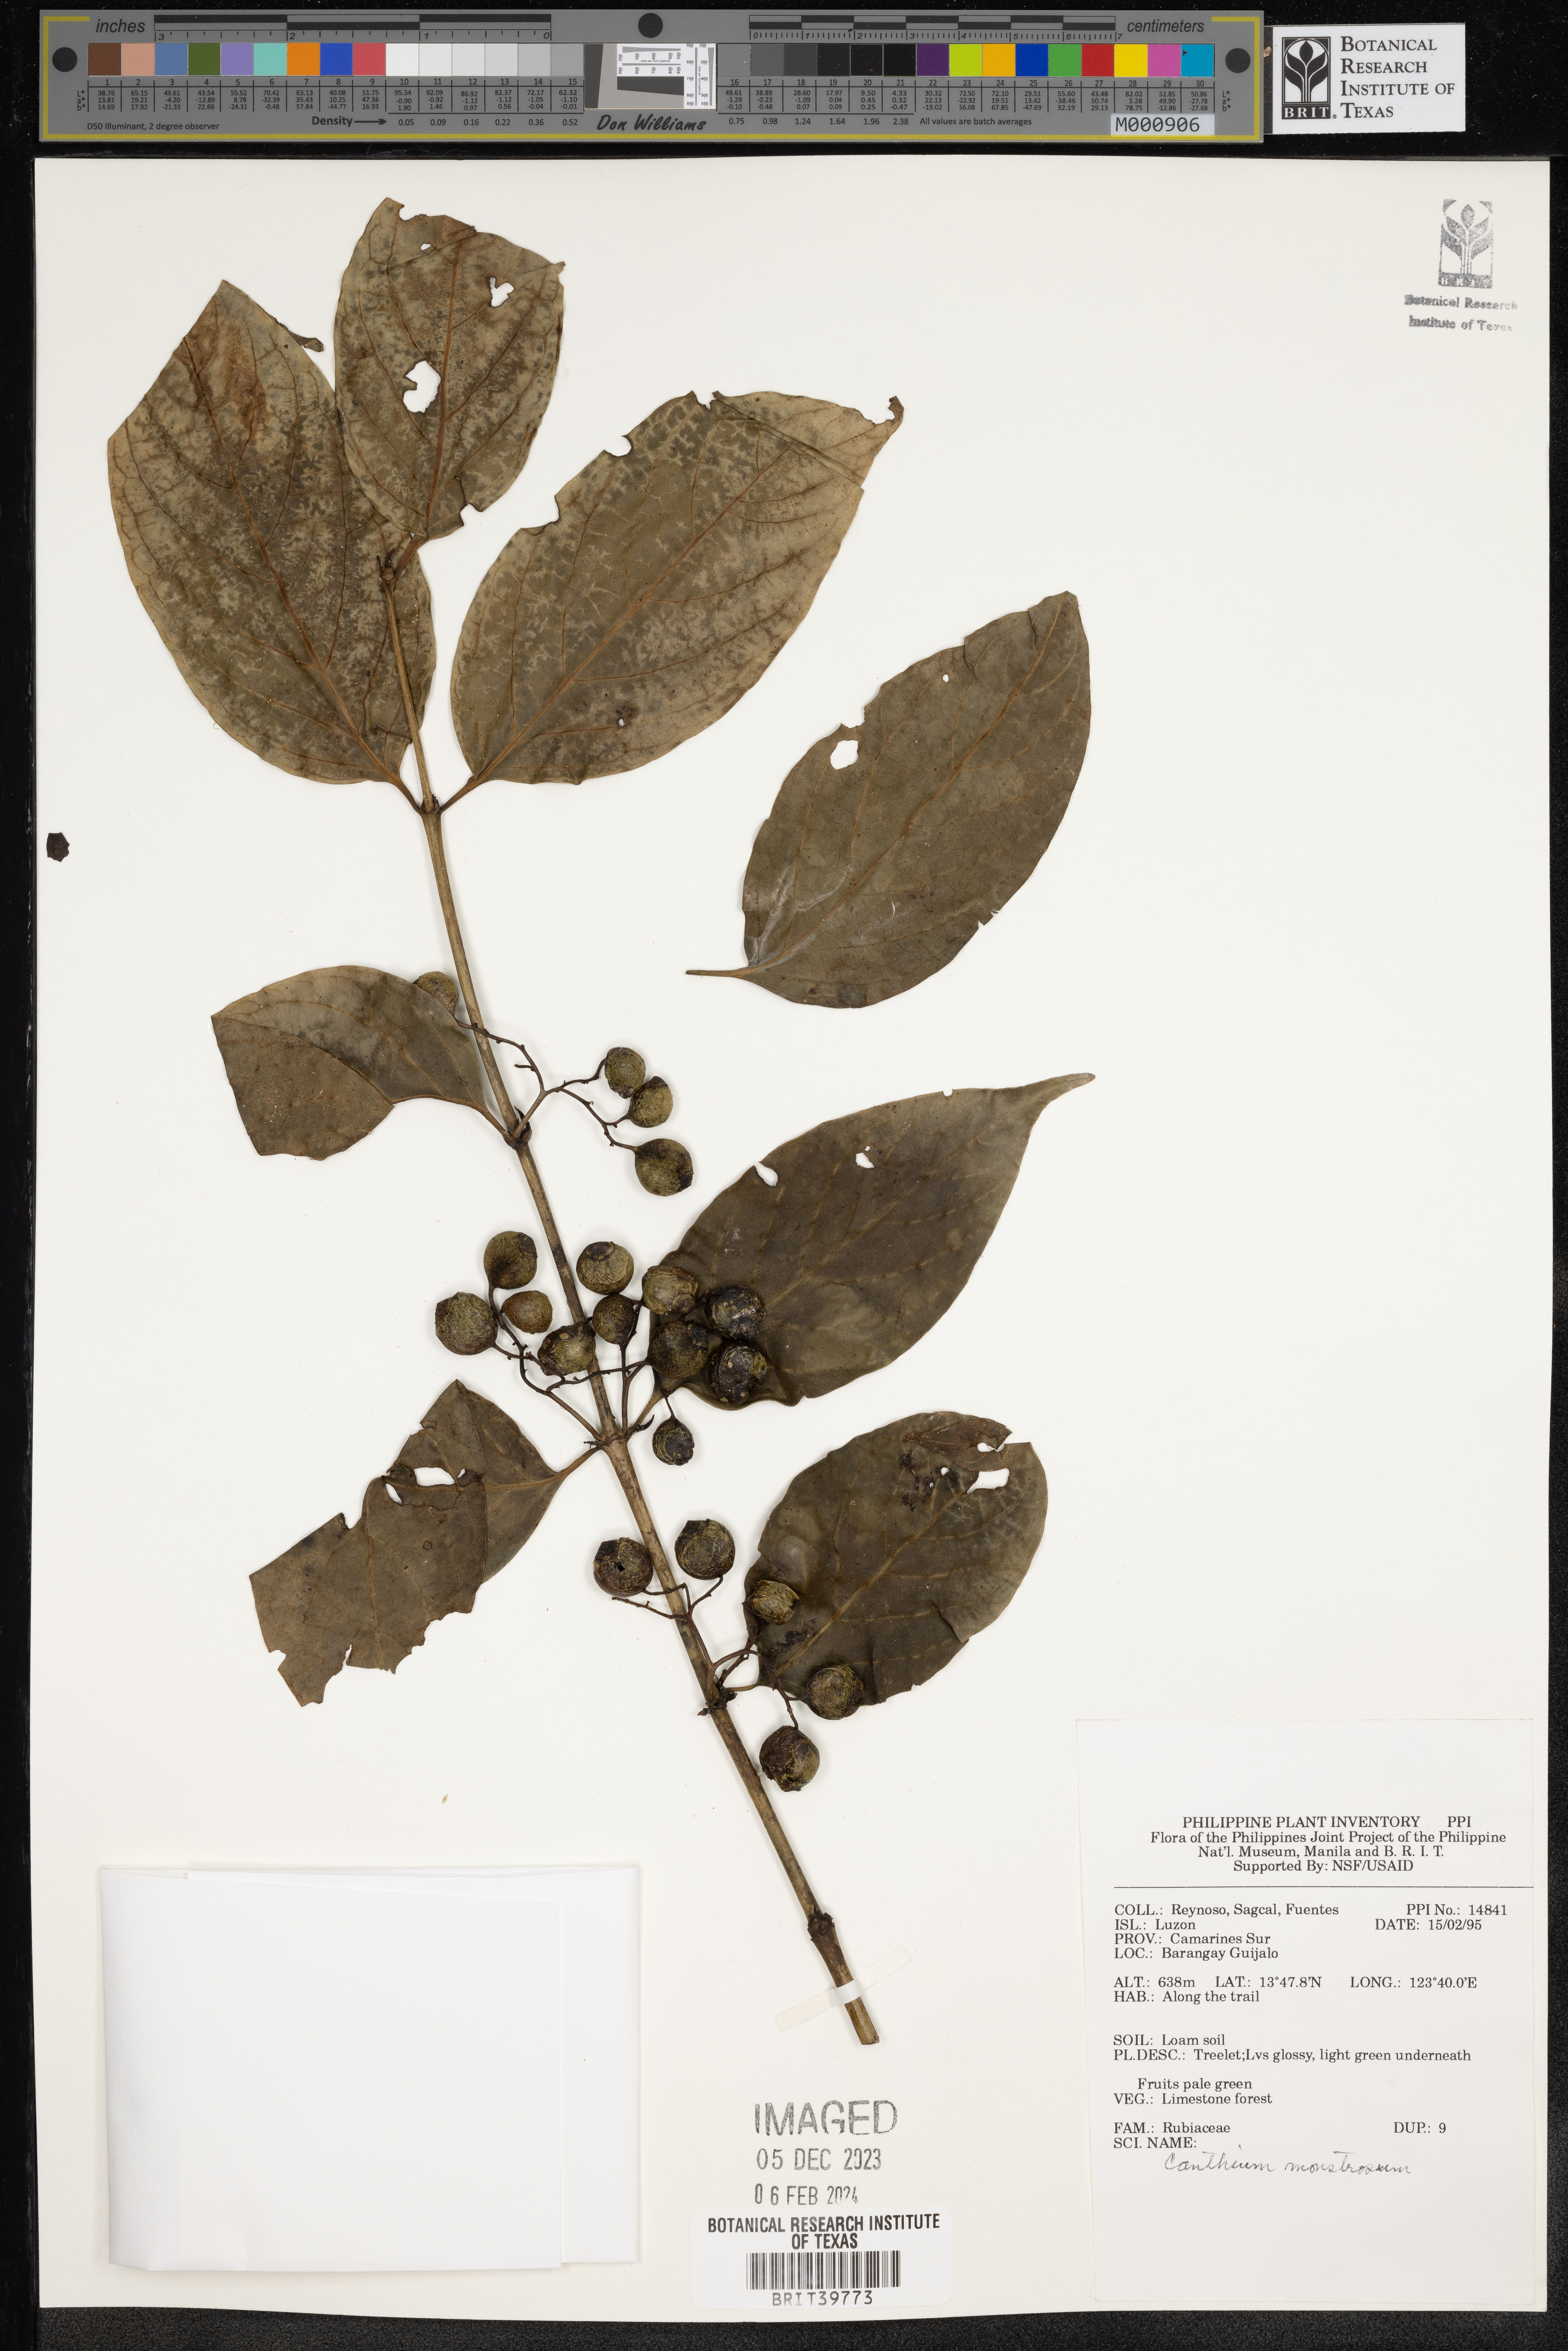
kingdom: Plantae
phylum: Tracheophyta
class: Magnoliopsida
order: Gentianales
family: Rubiaceae
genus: Kanapia
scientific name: Kanapia monstrosa
